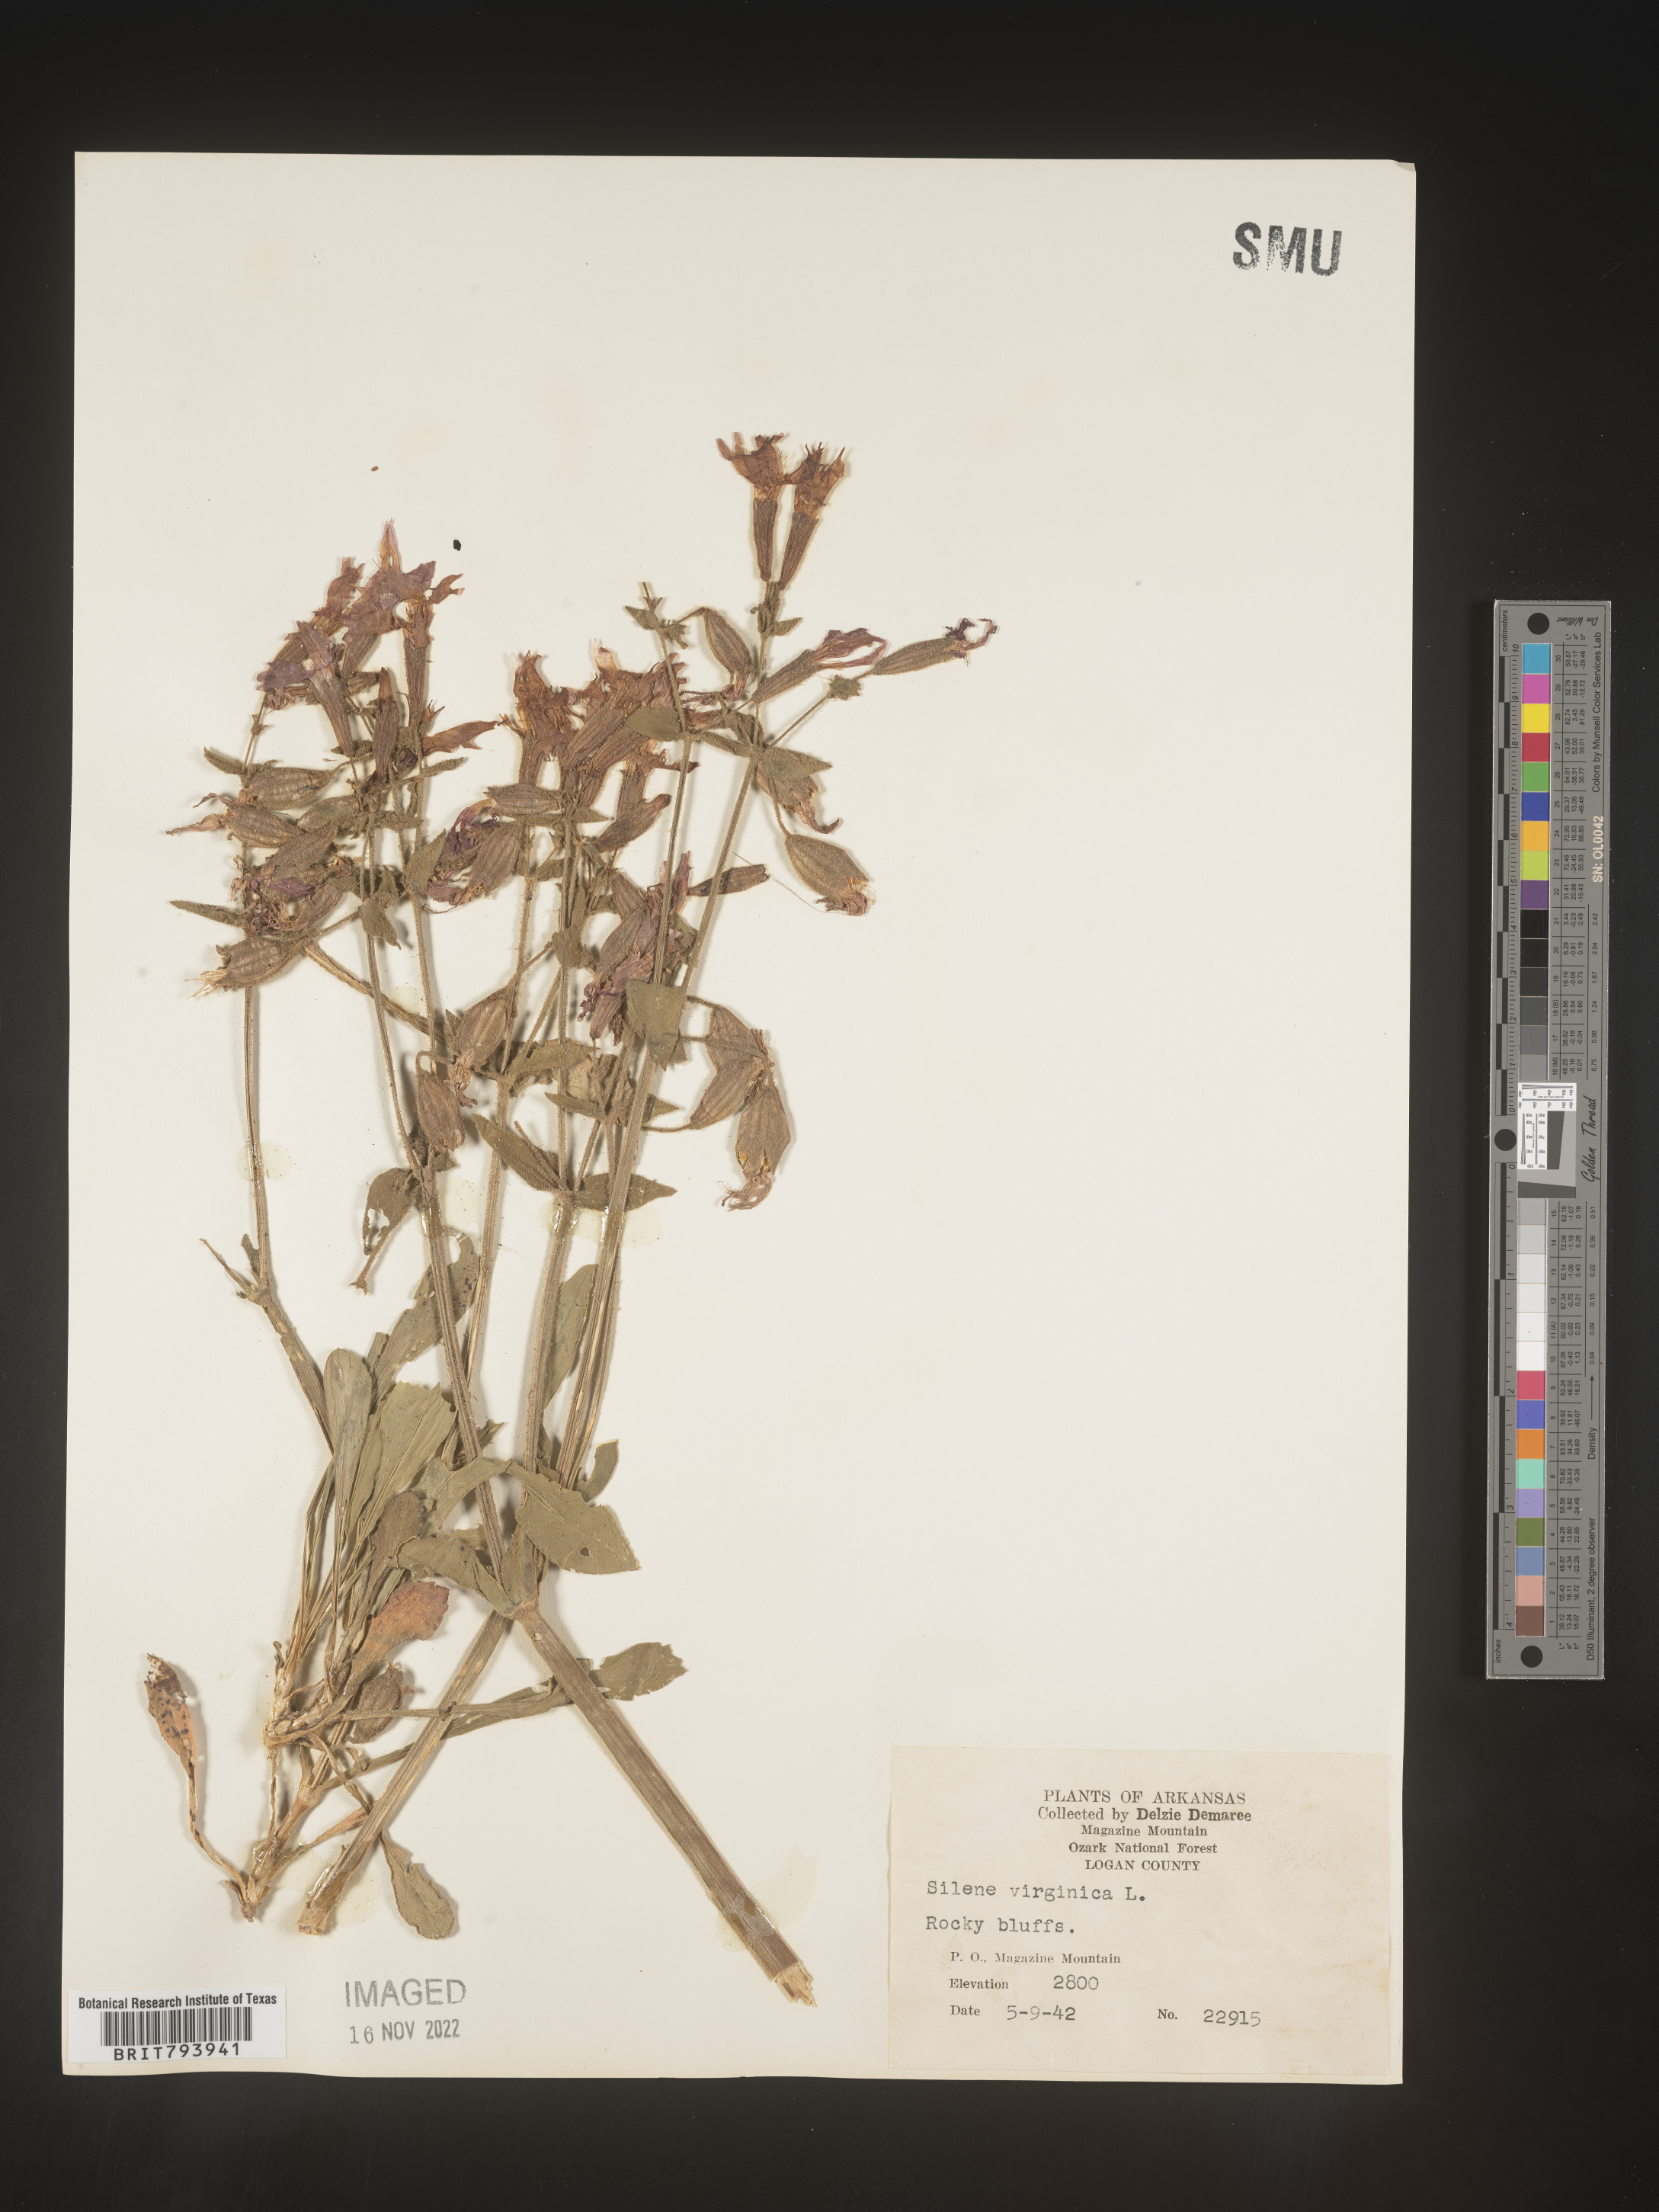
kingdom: Plantae
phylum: Tracheophyta
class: Magnoliopsida
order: Caryophyllales
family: Caryophyllaceae
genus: Silene
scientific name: Silene virginica
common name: Fire-pink
